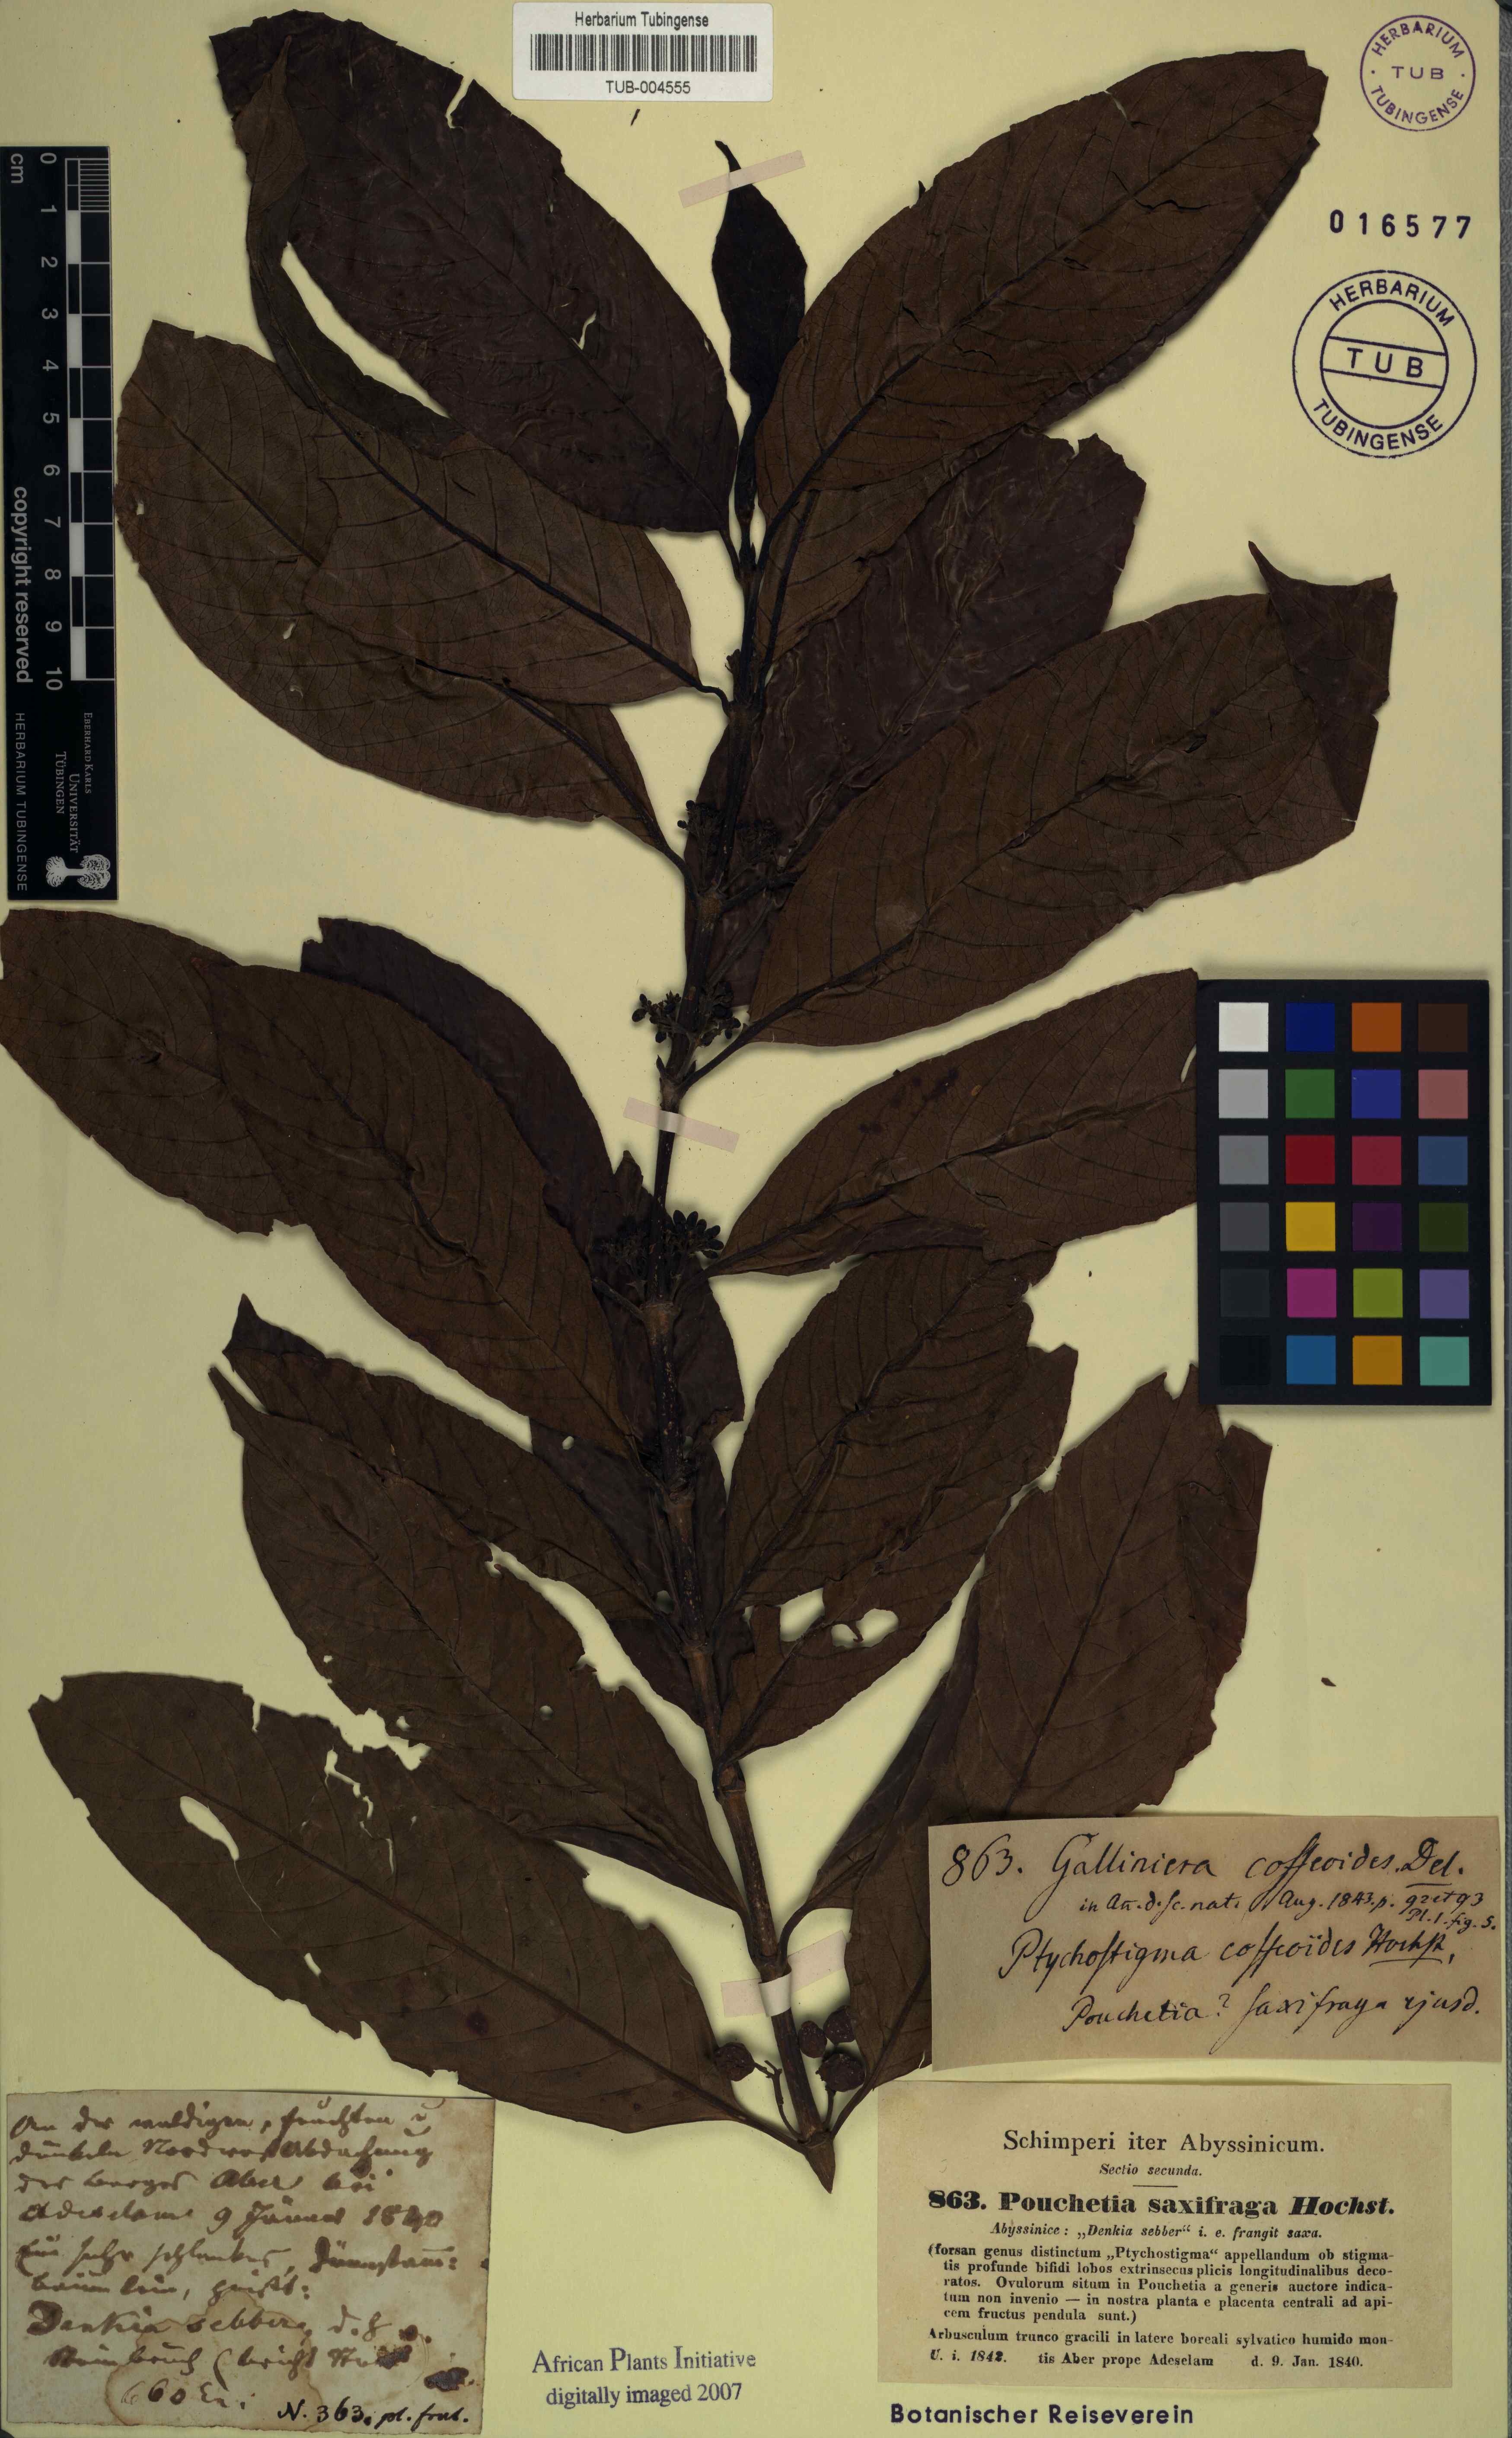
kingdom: Plantae
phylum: Tracheophyta
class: Magnoliopsida
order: Gentianales
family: Rubiaceae
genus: Galiniera
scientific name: Galiniera saxifraga
